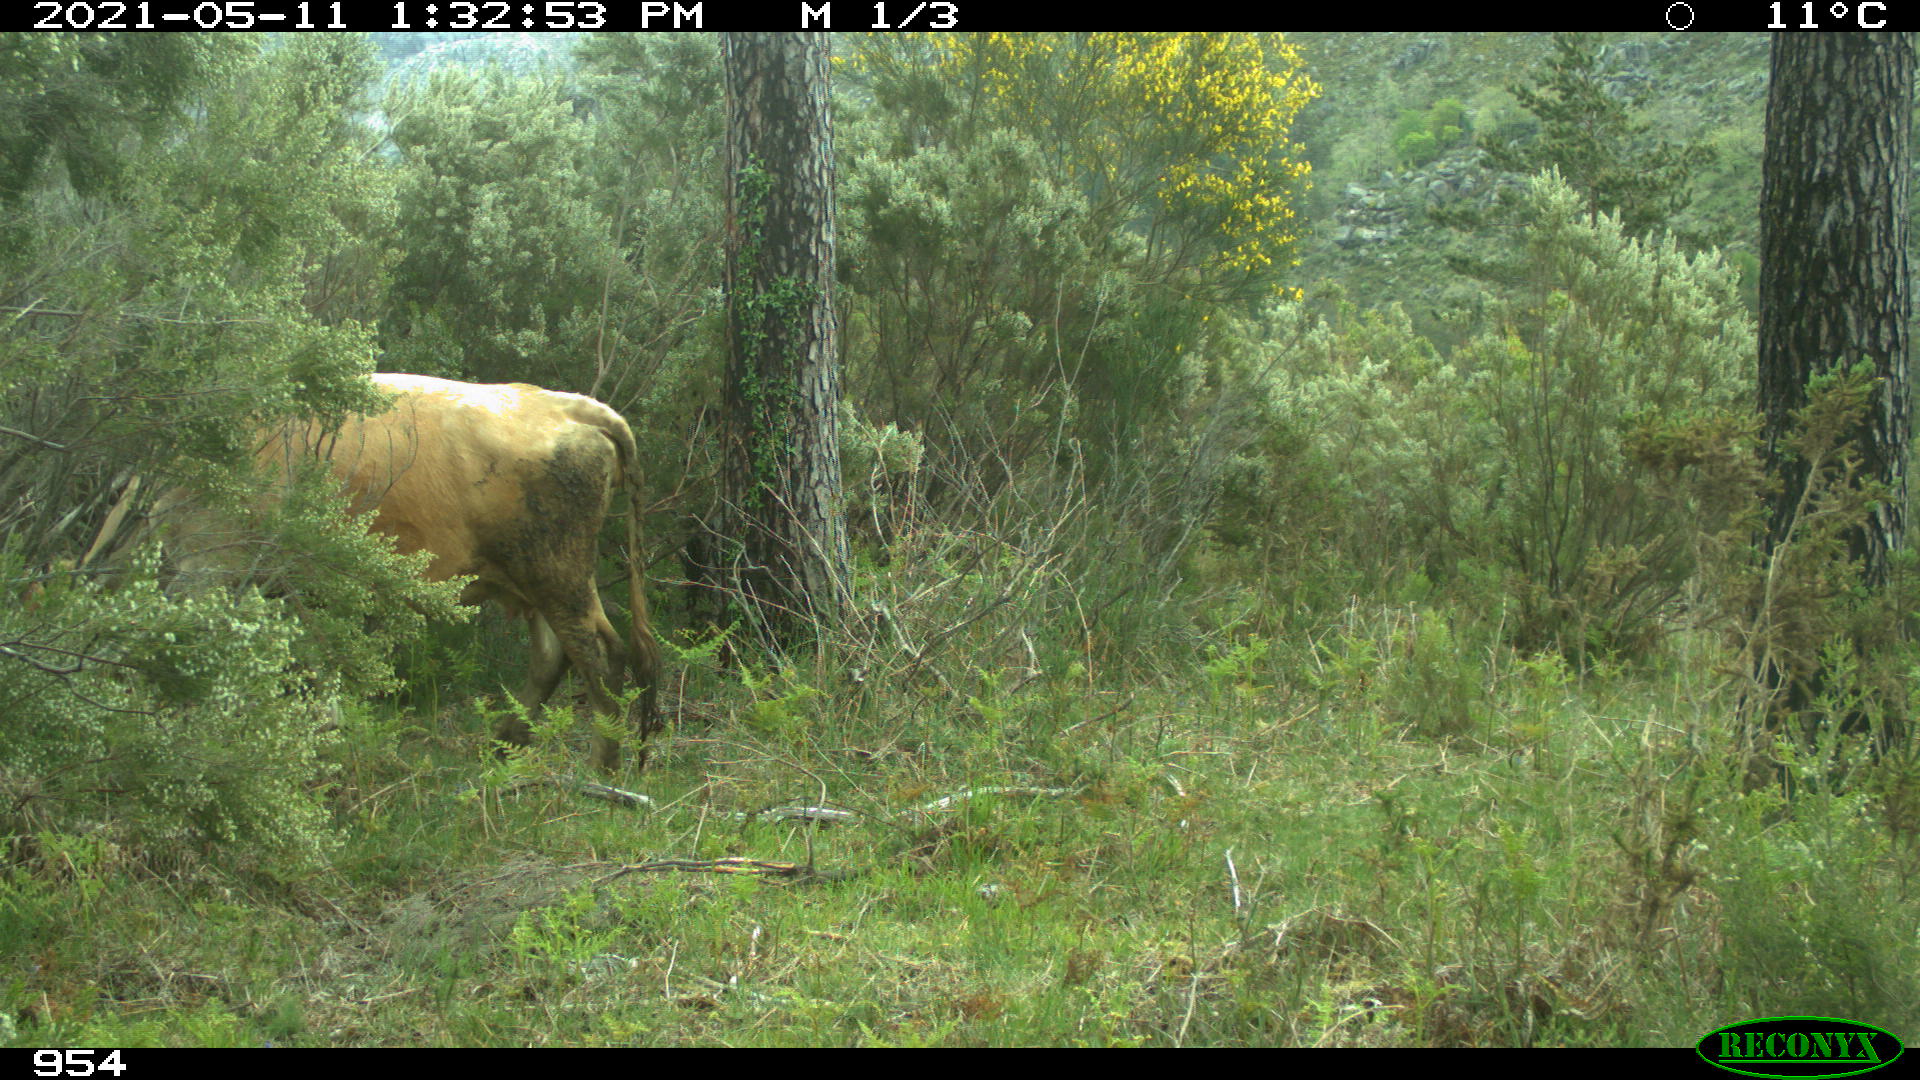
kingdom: Animalia
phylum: Chordata
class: Mammalia
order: Artiodactyla
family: Bovidae
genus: Bos
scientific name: Bos taurus
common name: Domesticated cattle
